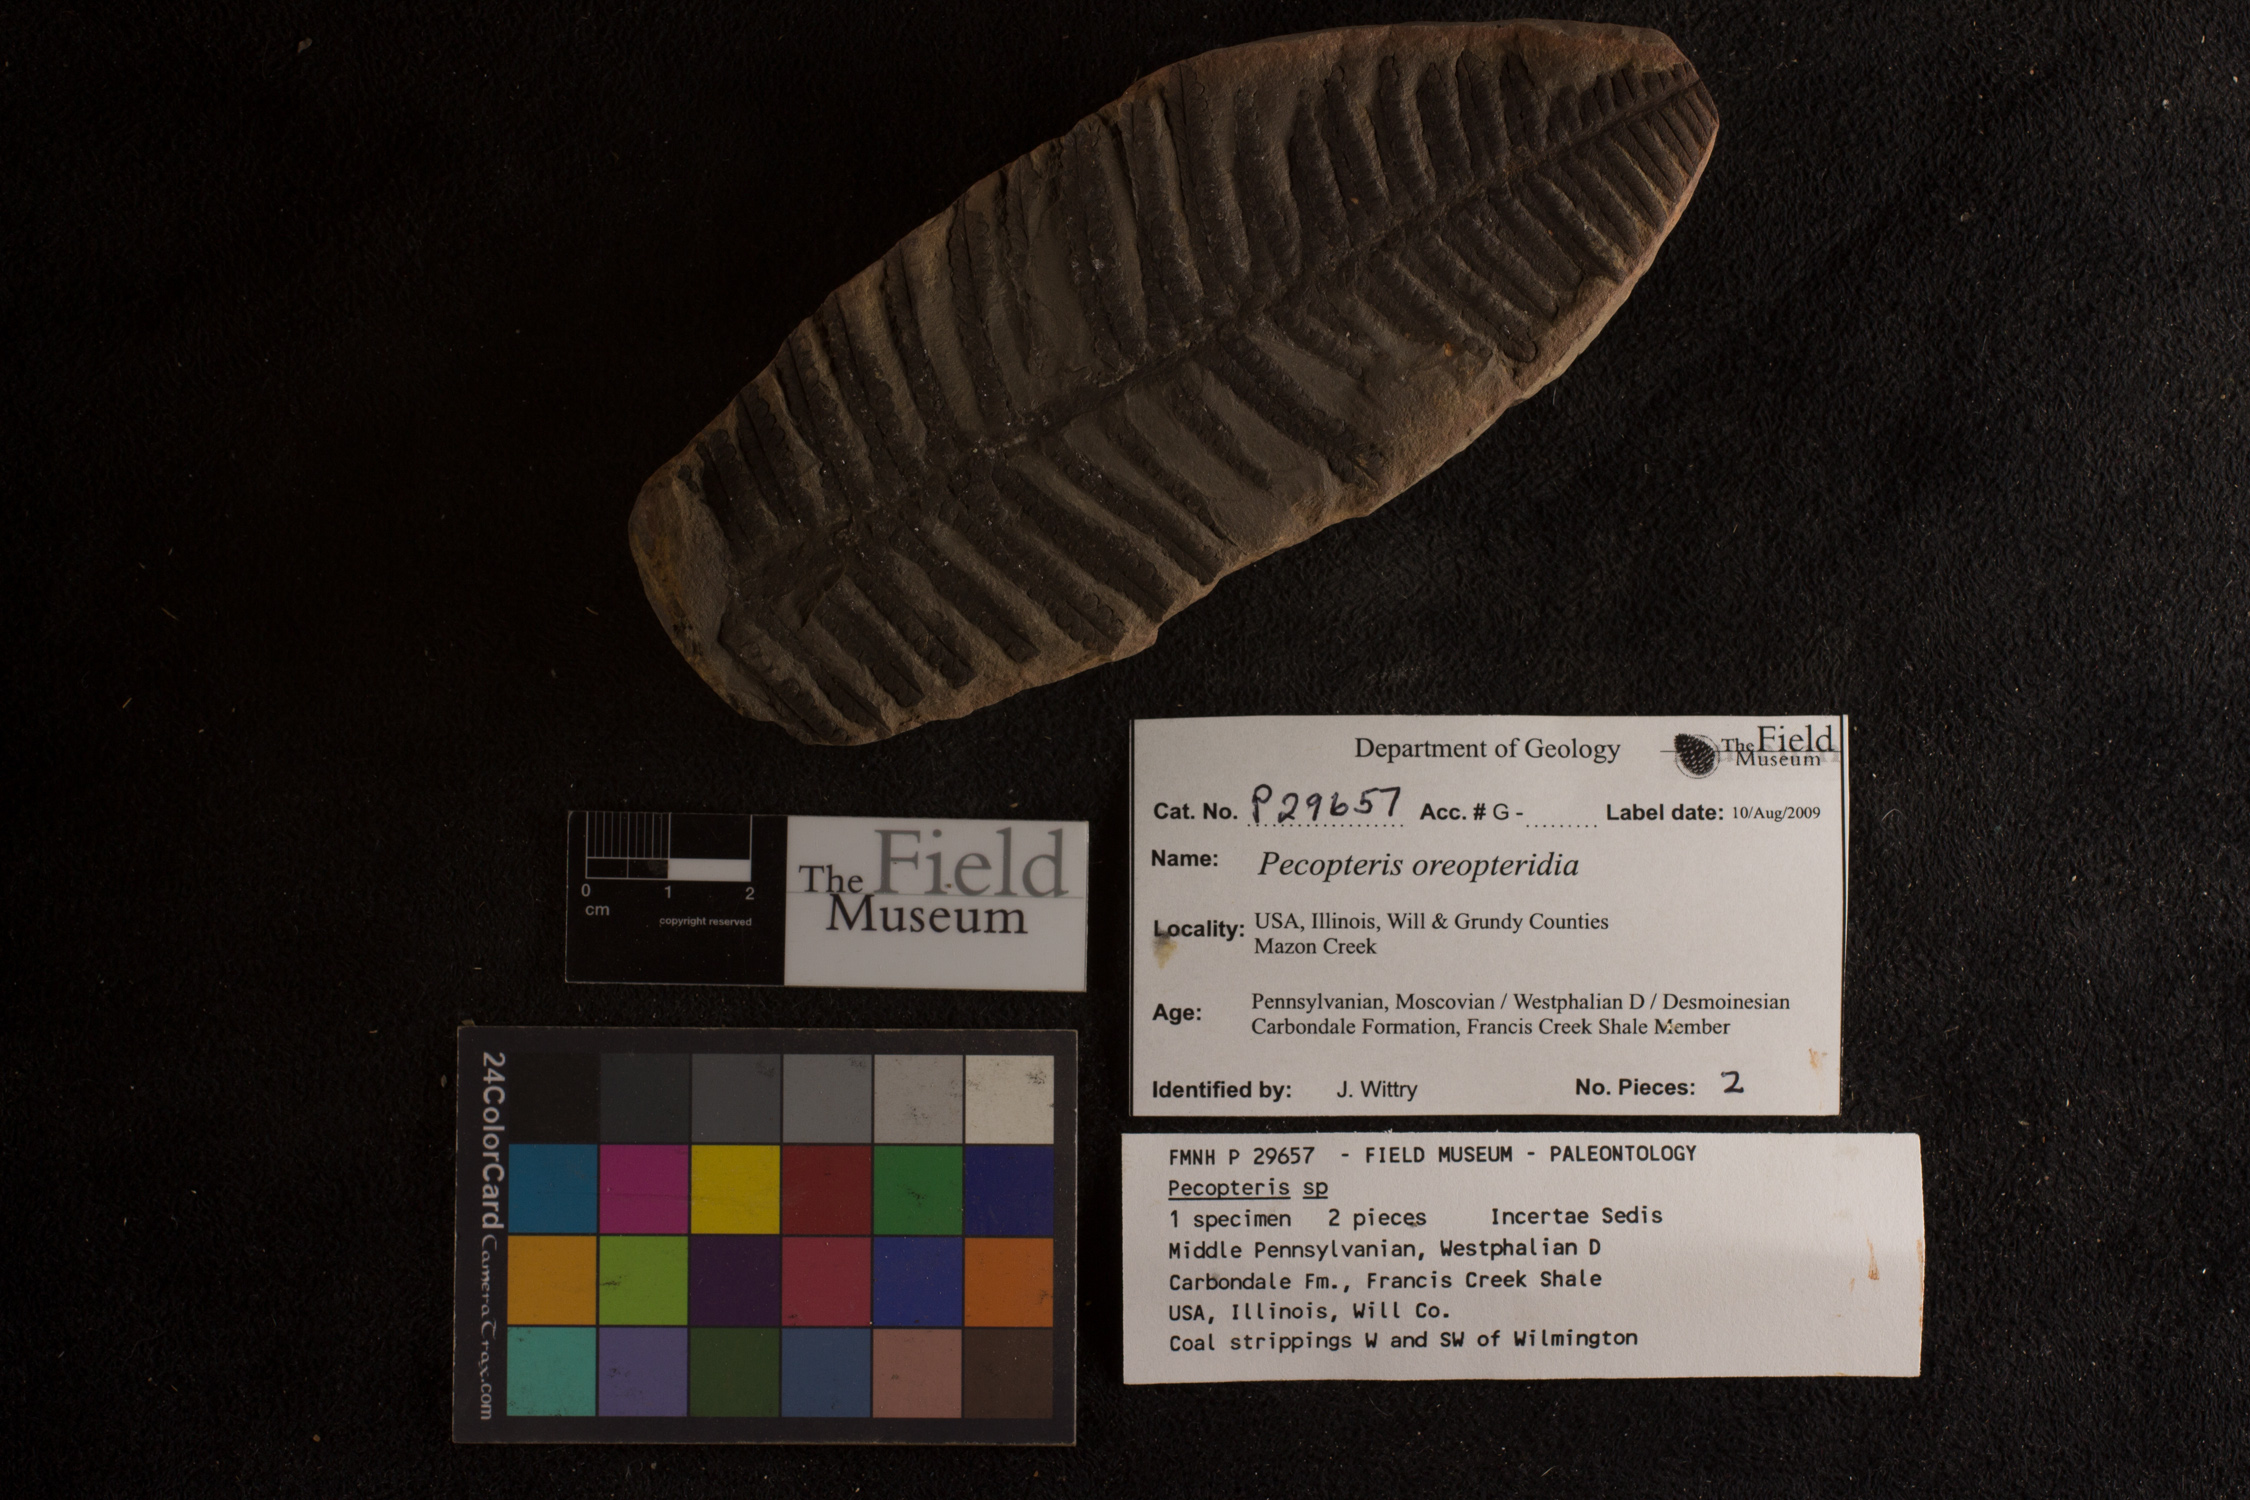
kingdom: Plantae
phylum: Tracheophyta
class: Polypodiopsida
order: Marattiales
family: Asterothecaceae
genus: Pecopteris
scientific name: Pecopteris
